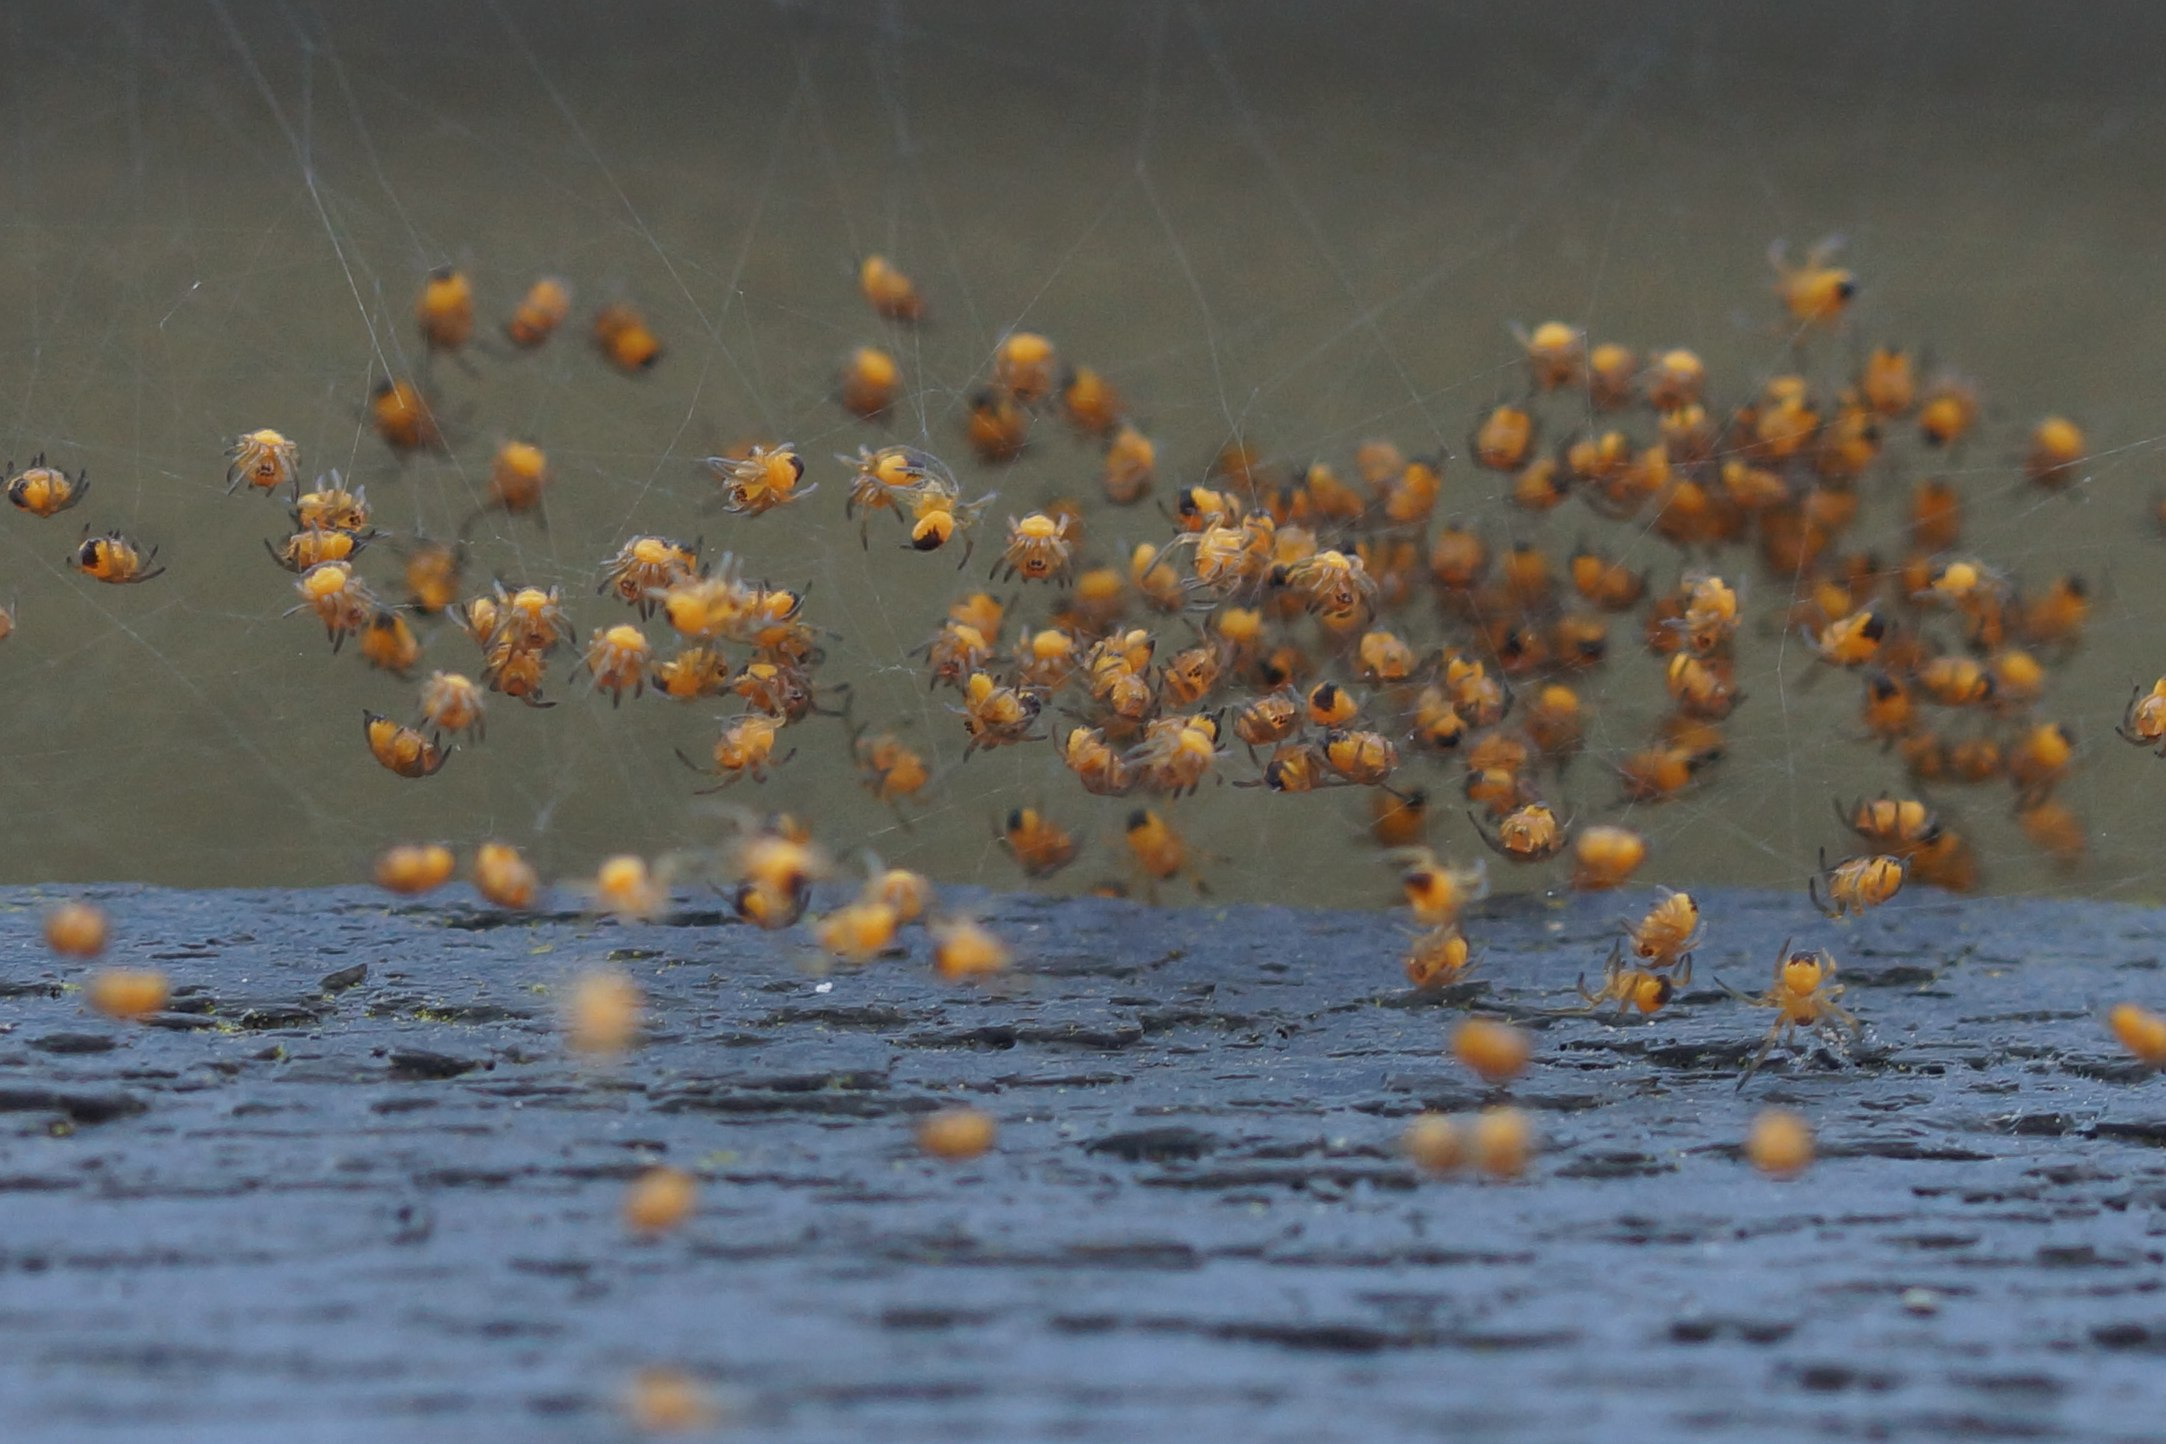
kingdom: Animalia
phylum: Arthropoda
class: Arachnida
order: Araneae
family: Araneidae
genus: Araneus
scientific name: Araneus diadematus
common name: Korsedderkop
